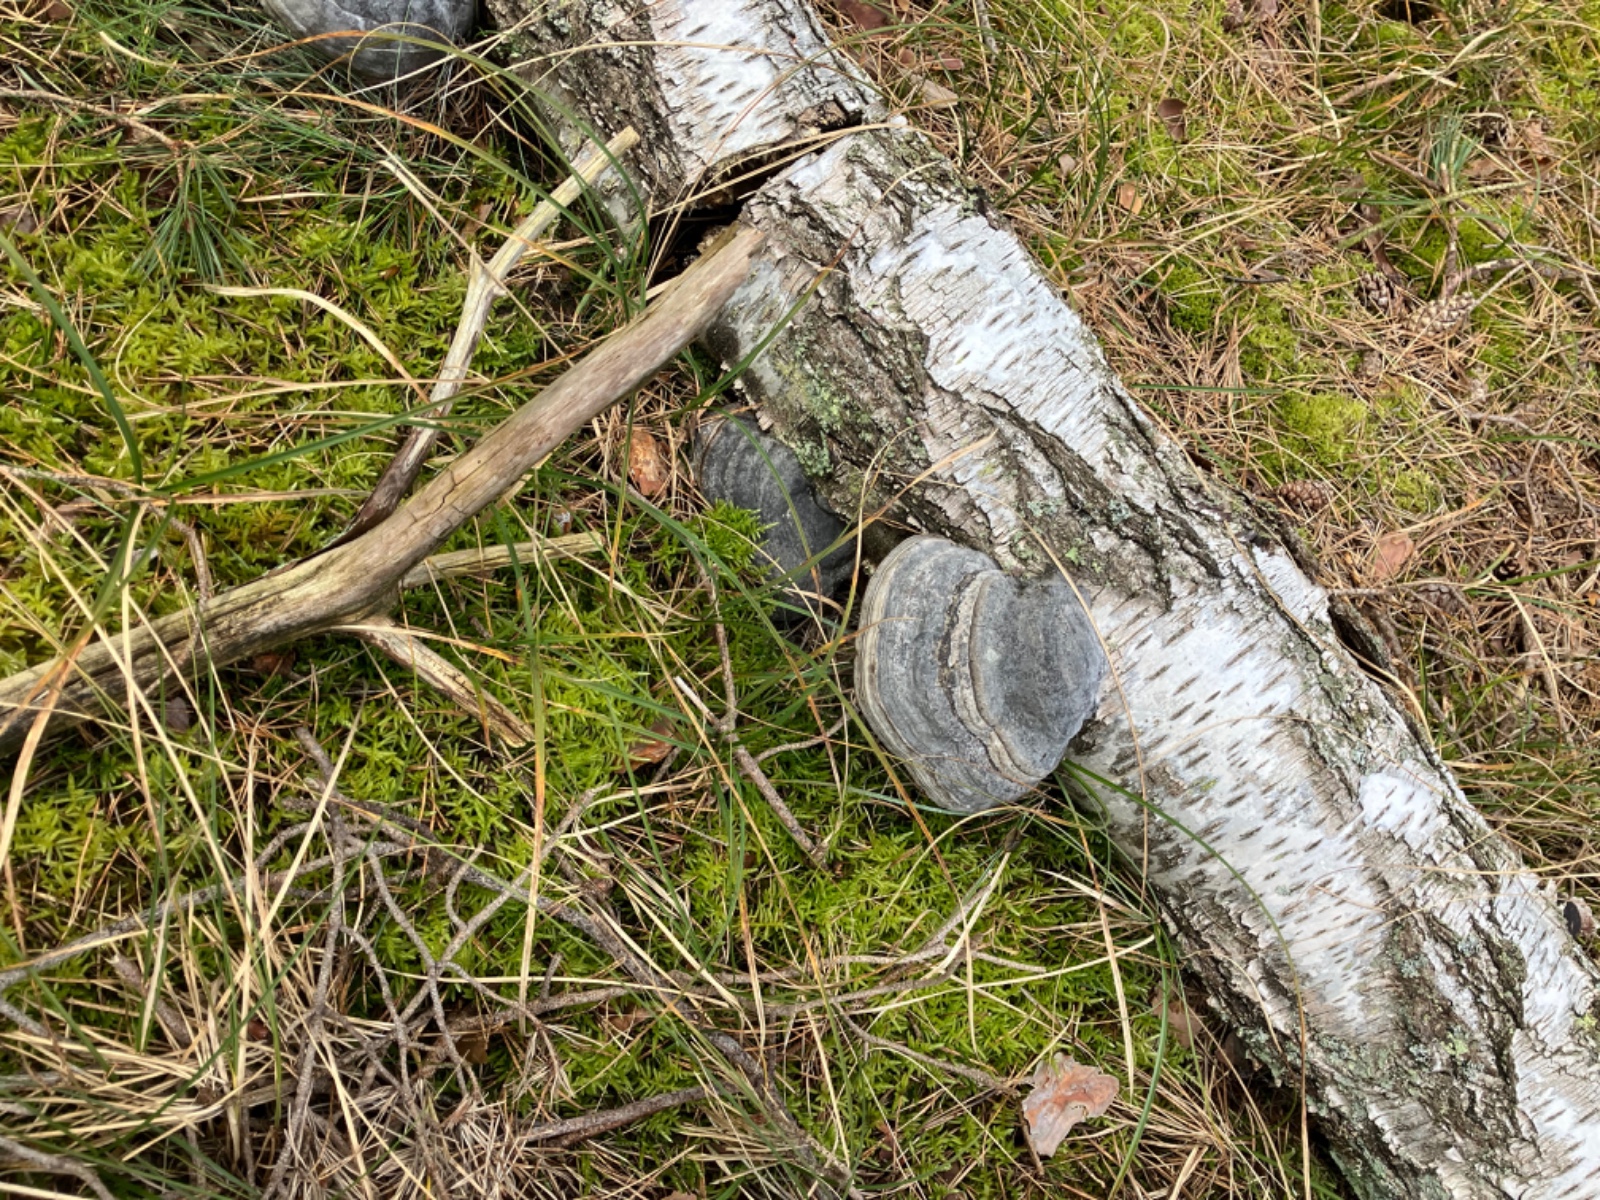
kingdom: Fungi
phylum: Basidiomycota
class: Agaricomycetes
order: Polyporales
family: Polyporaceae
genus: Fomes
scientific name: Fomes fomentarius
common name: tøndersvamp
